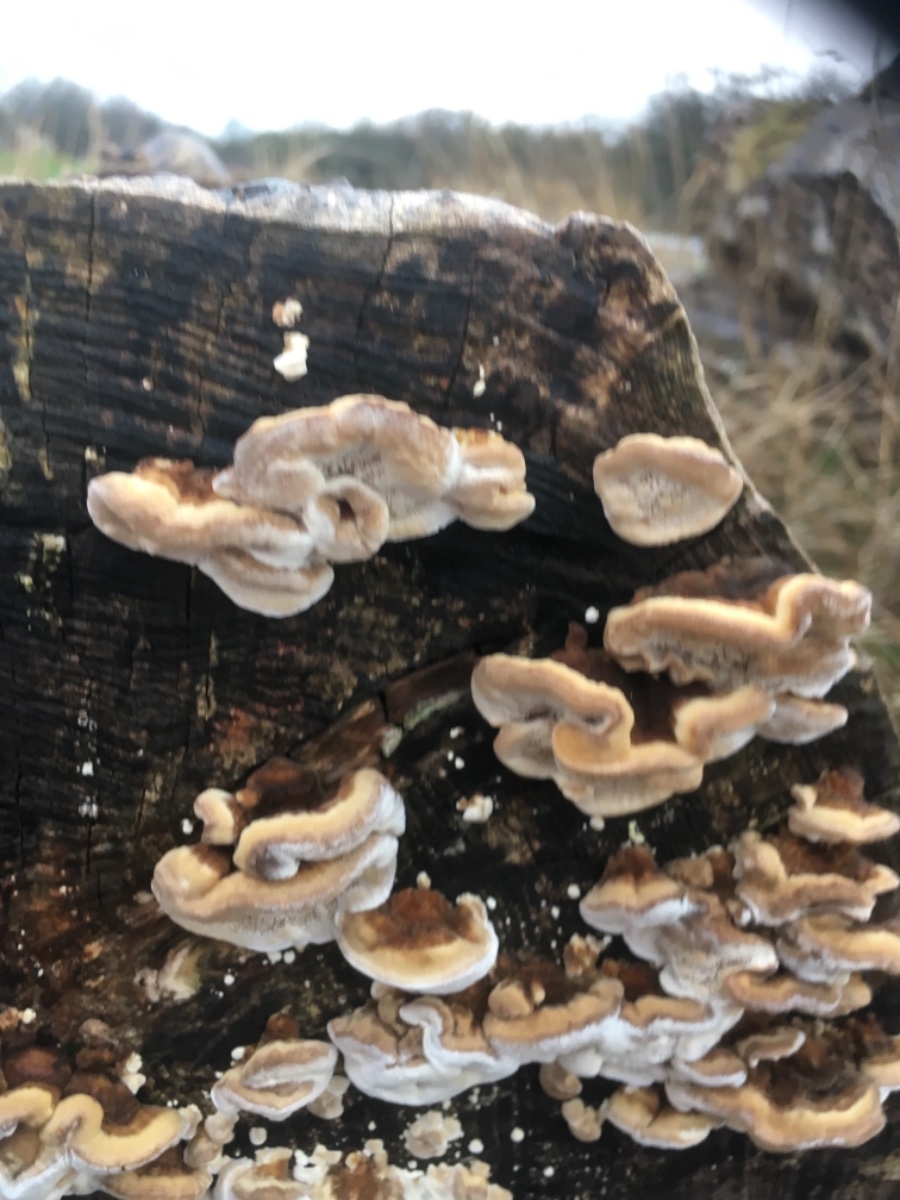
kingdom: Fungi
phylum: Basidiomycota
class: Agaricomycetes
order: Polyporales
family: Polyporaceae
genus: Trametes
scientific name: Trametes
